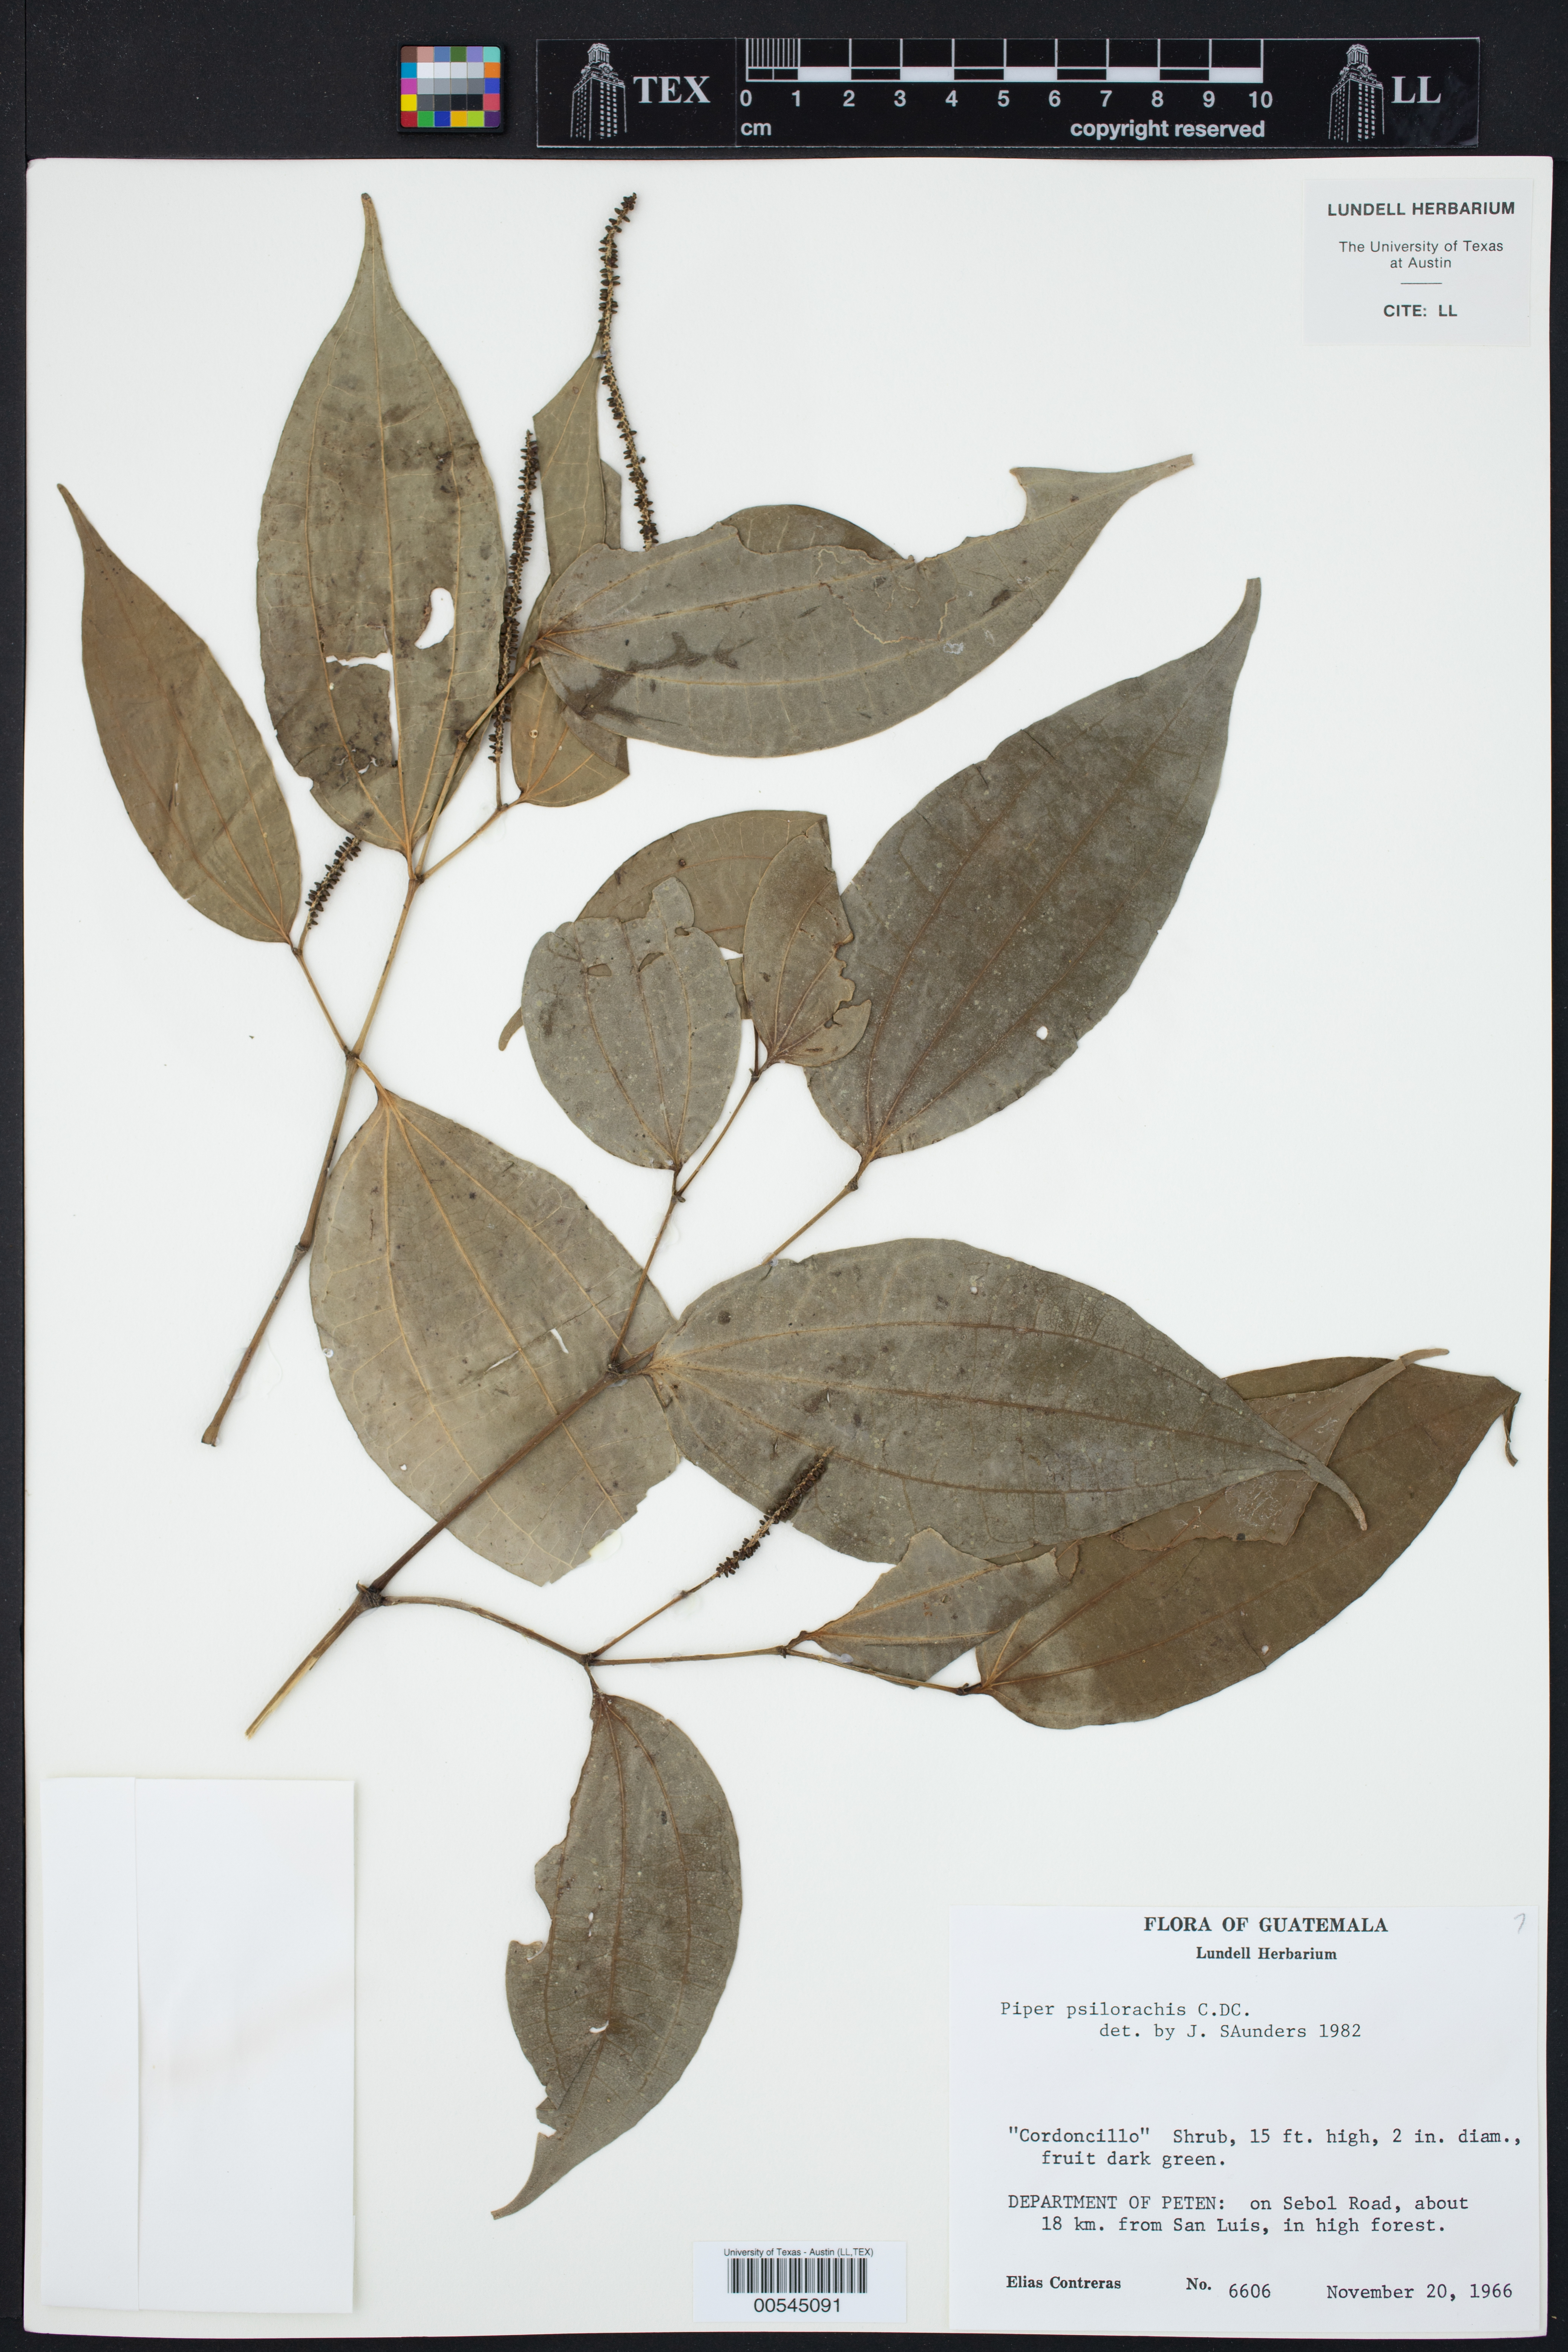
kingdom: Plantae
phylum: Tracheophyta
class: Magnoliopsida
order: Piperales
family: Piperaceae
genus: Piper
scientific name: Piper psilorhachis
